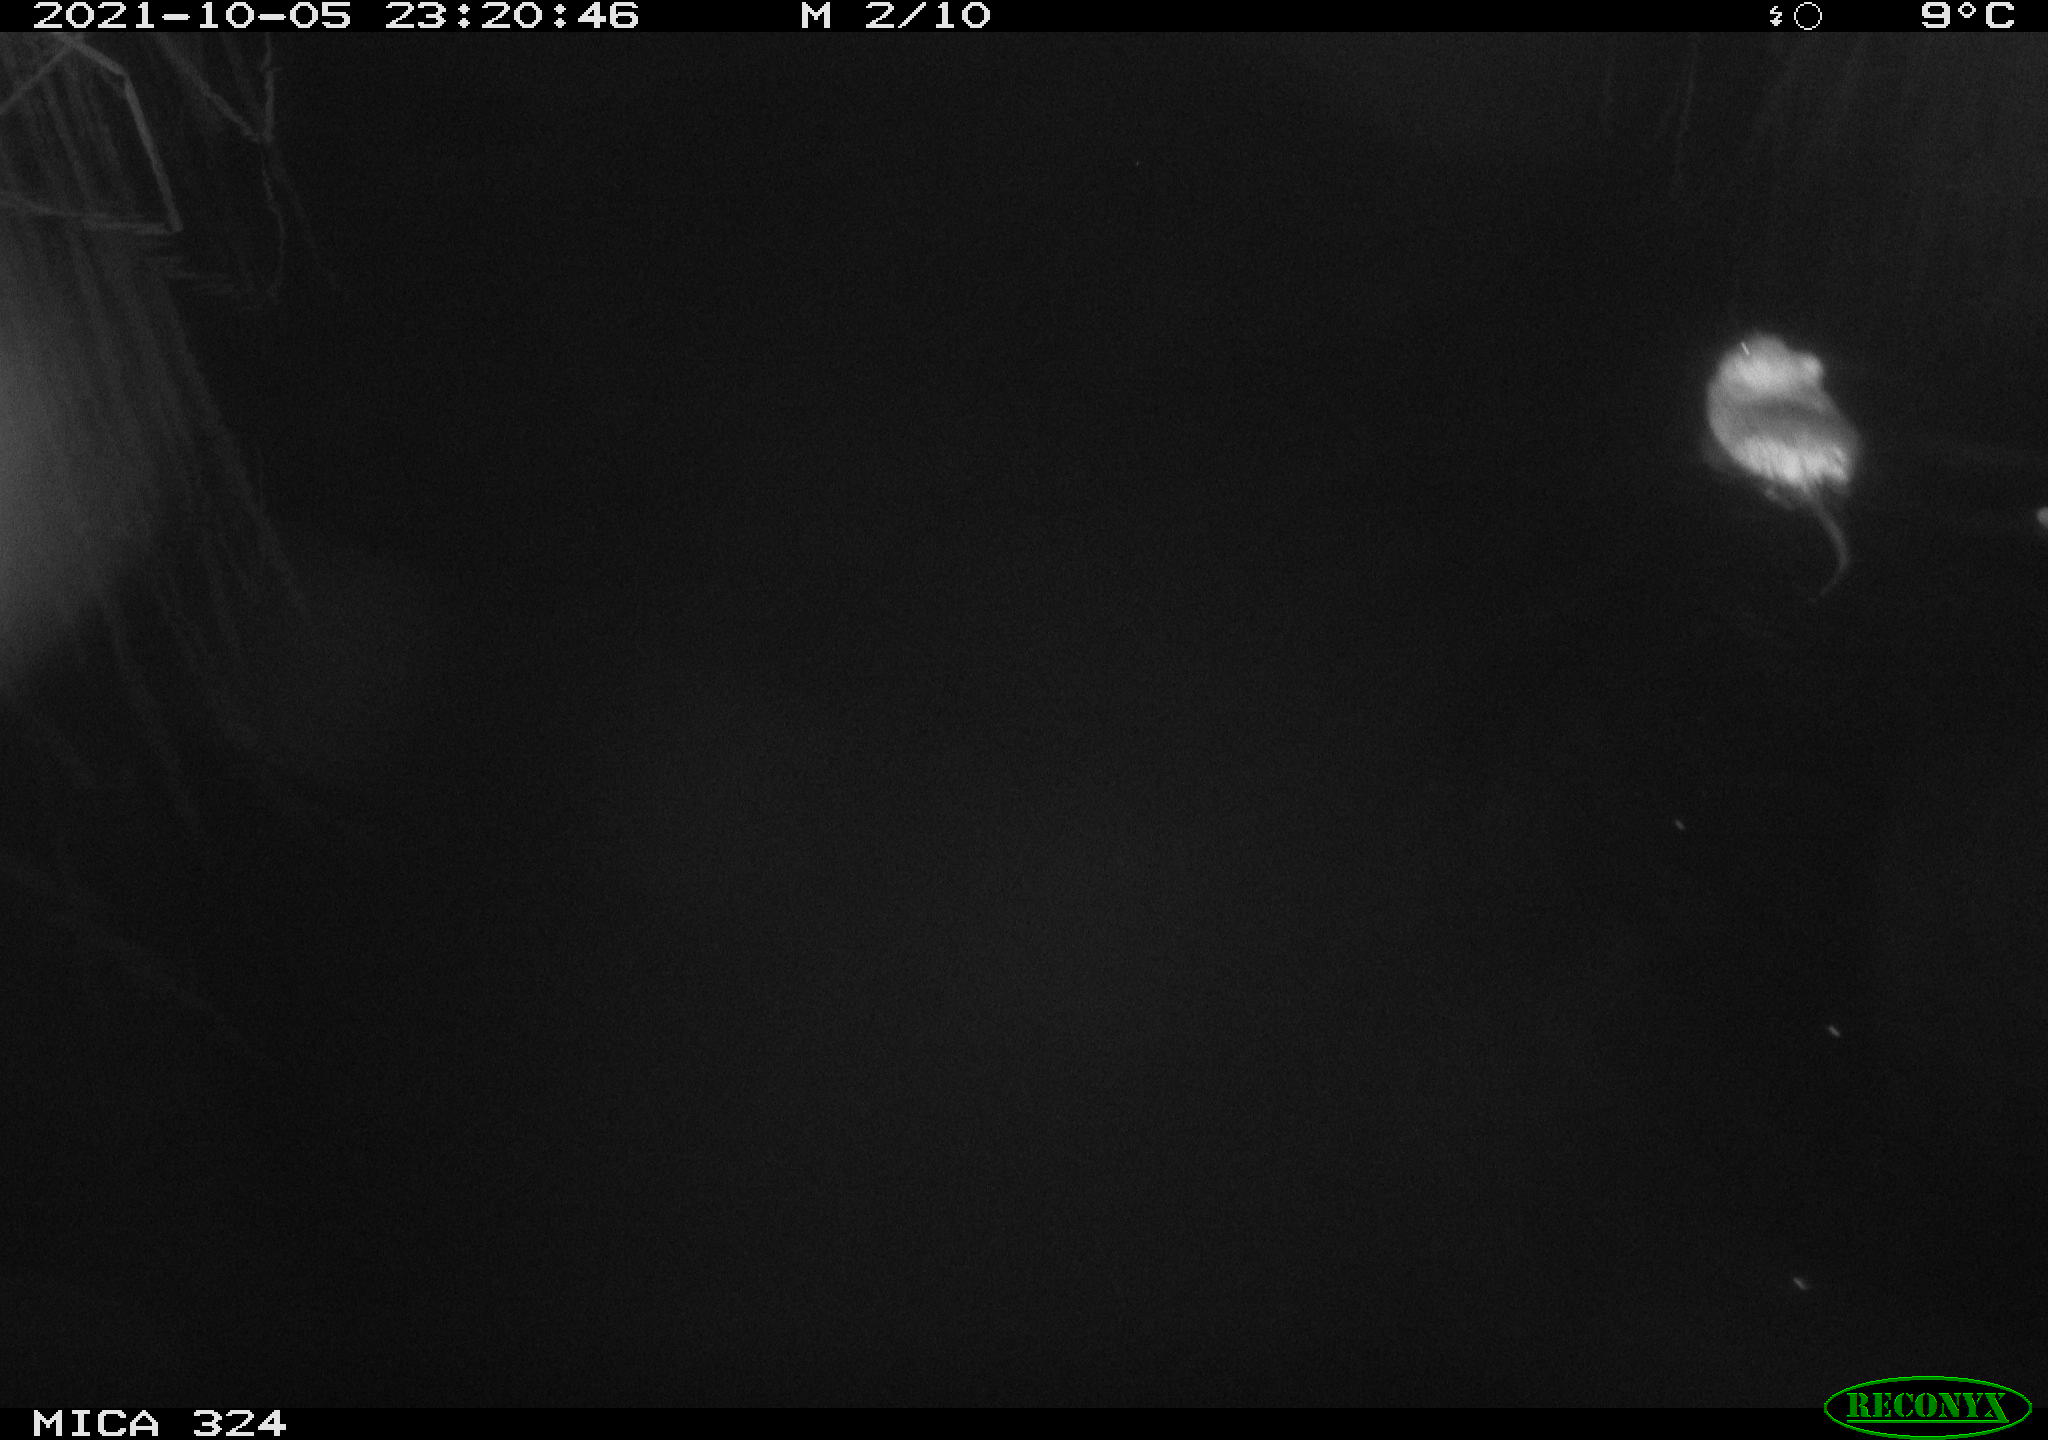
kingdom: Animalia
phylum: Chordata
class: Mammalia
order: Rodentia
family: Cricetidae
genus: Ondatra
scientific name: Ondatra zibethicus
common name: Muskrat
